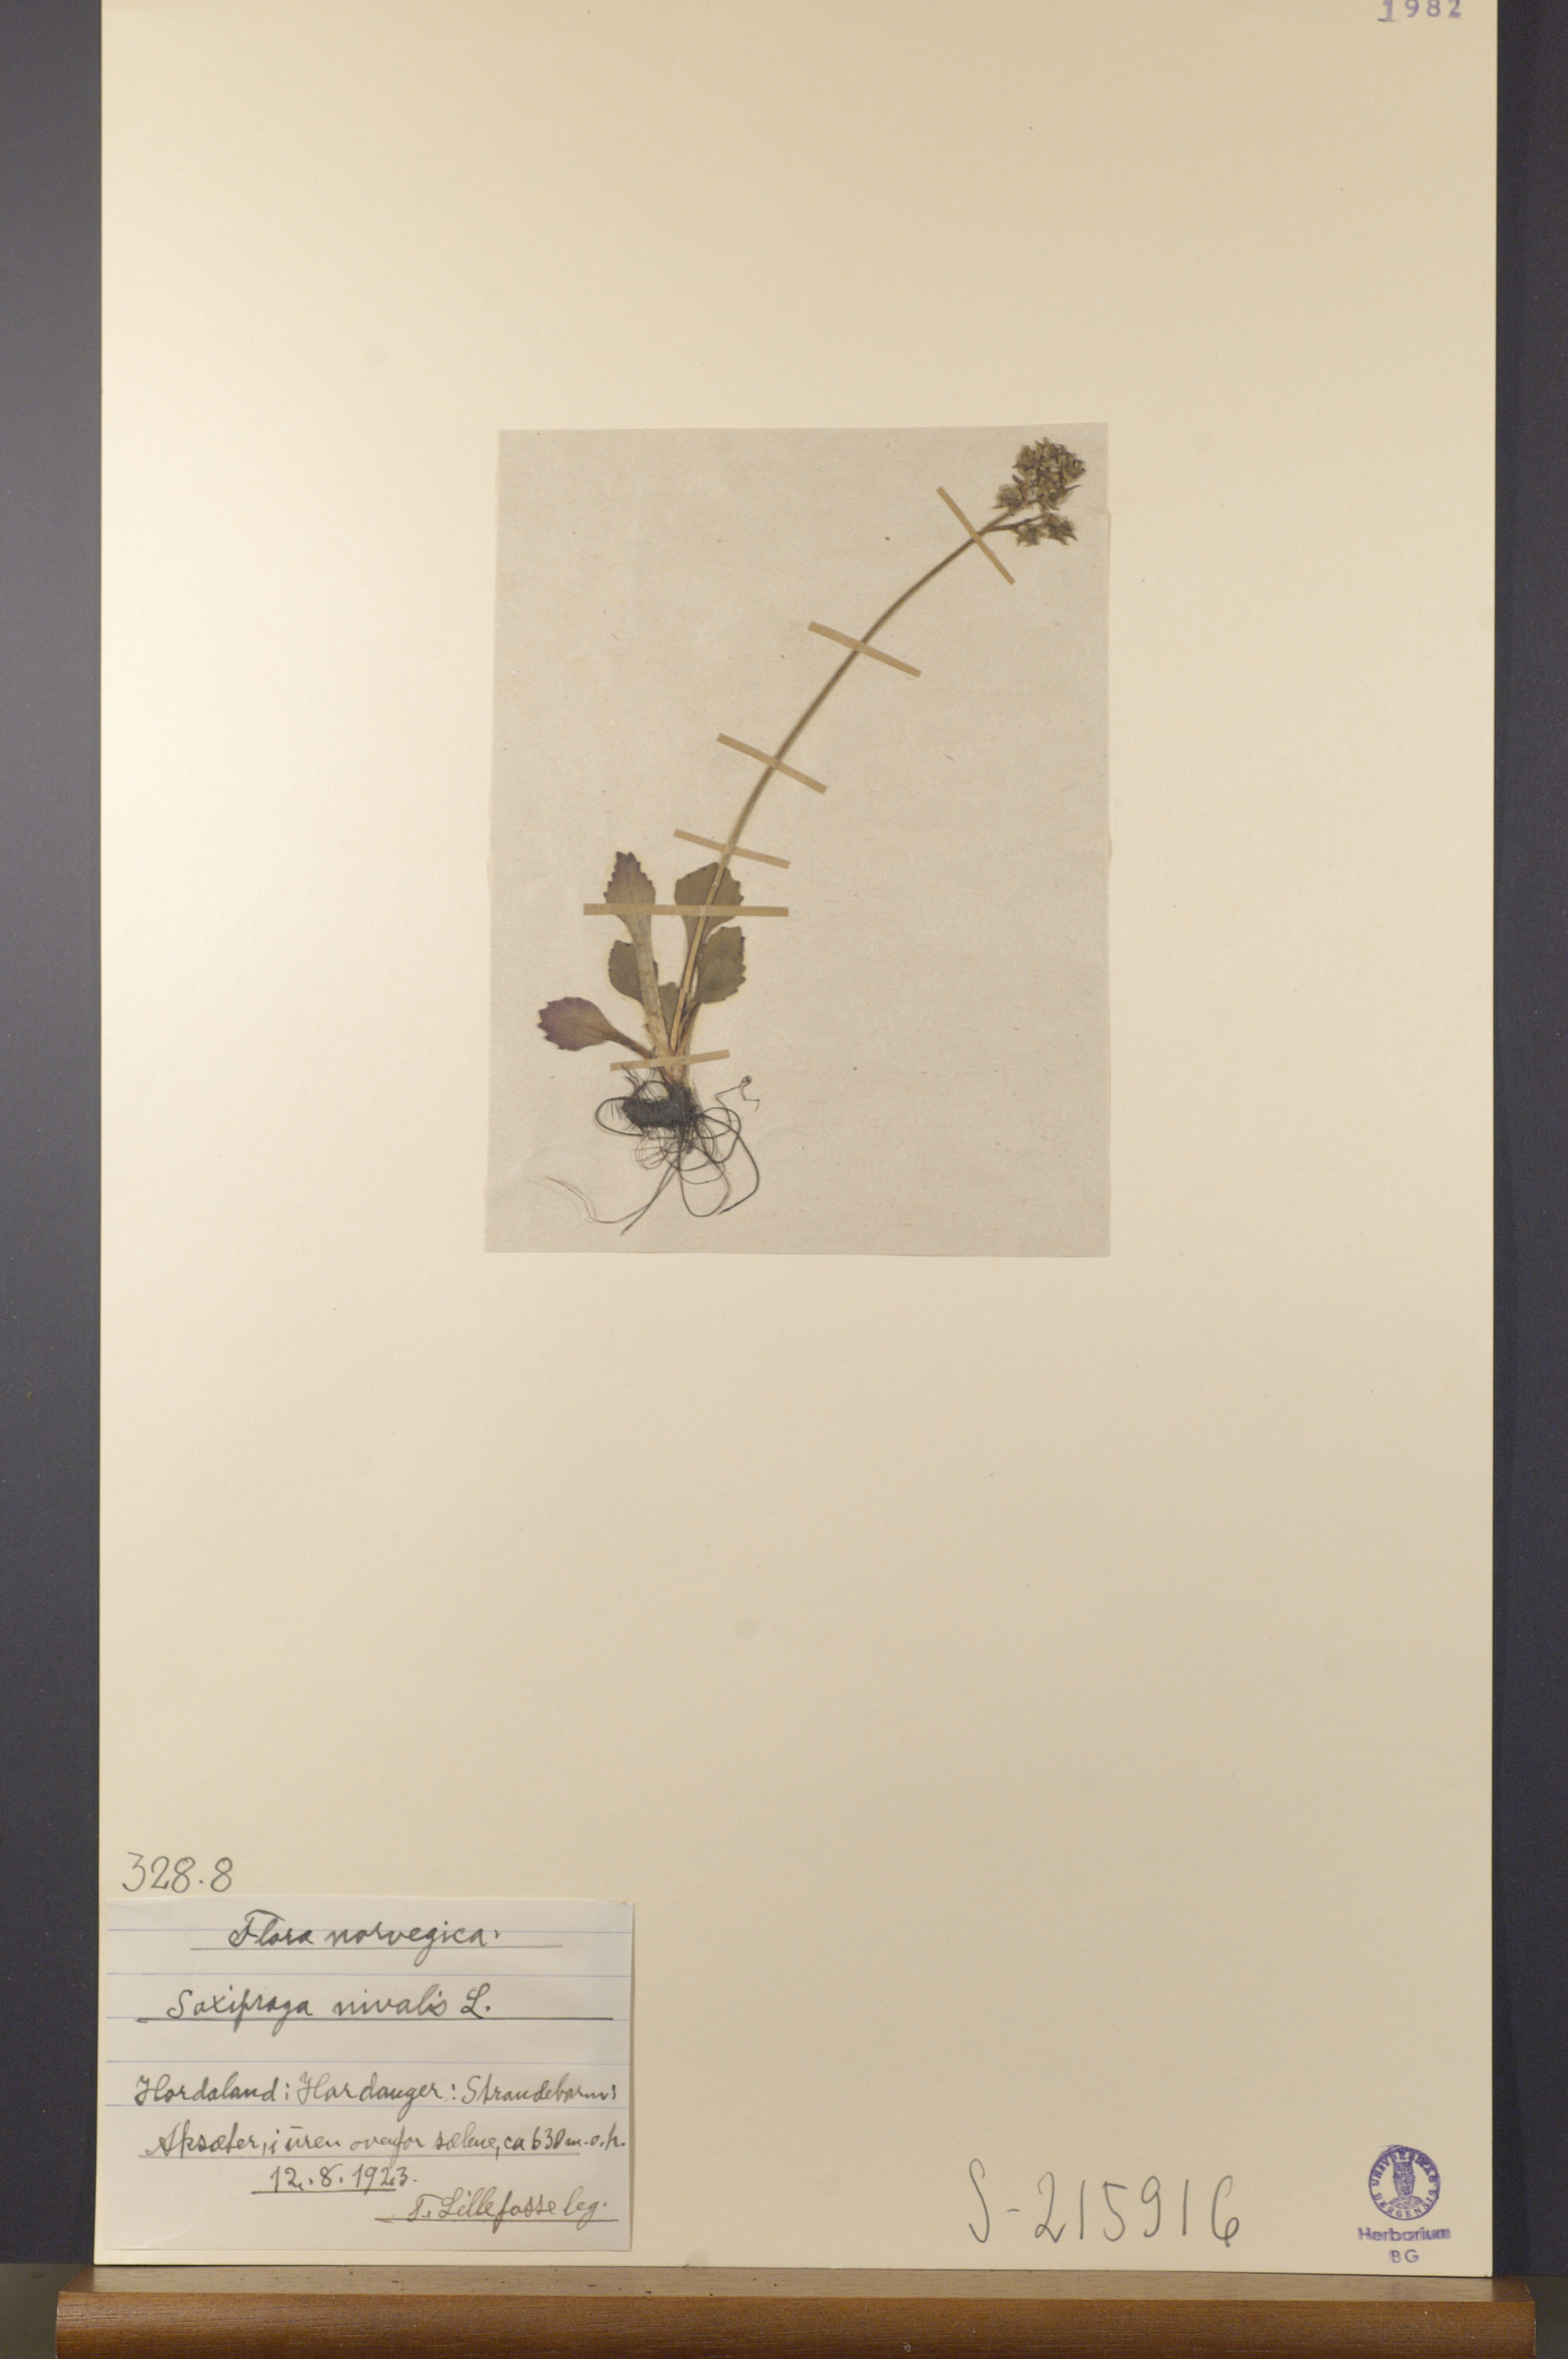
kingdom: Plantae
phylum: Tracheophyta
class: Magnoliopsida
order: Saxifragales
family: Saxifragaceae
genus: Micranthes
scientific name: Micranthes nivalis
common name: Alpine saxifrage
